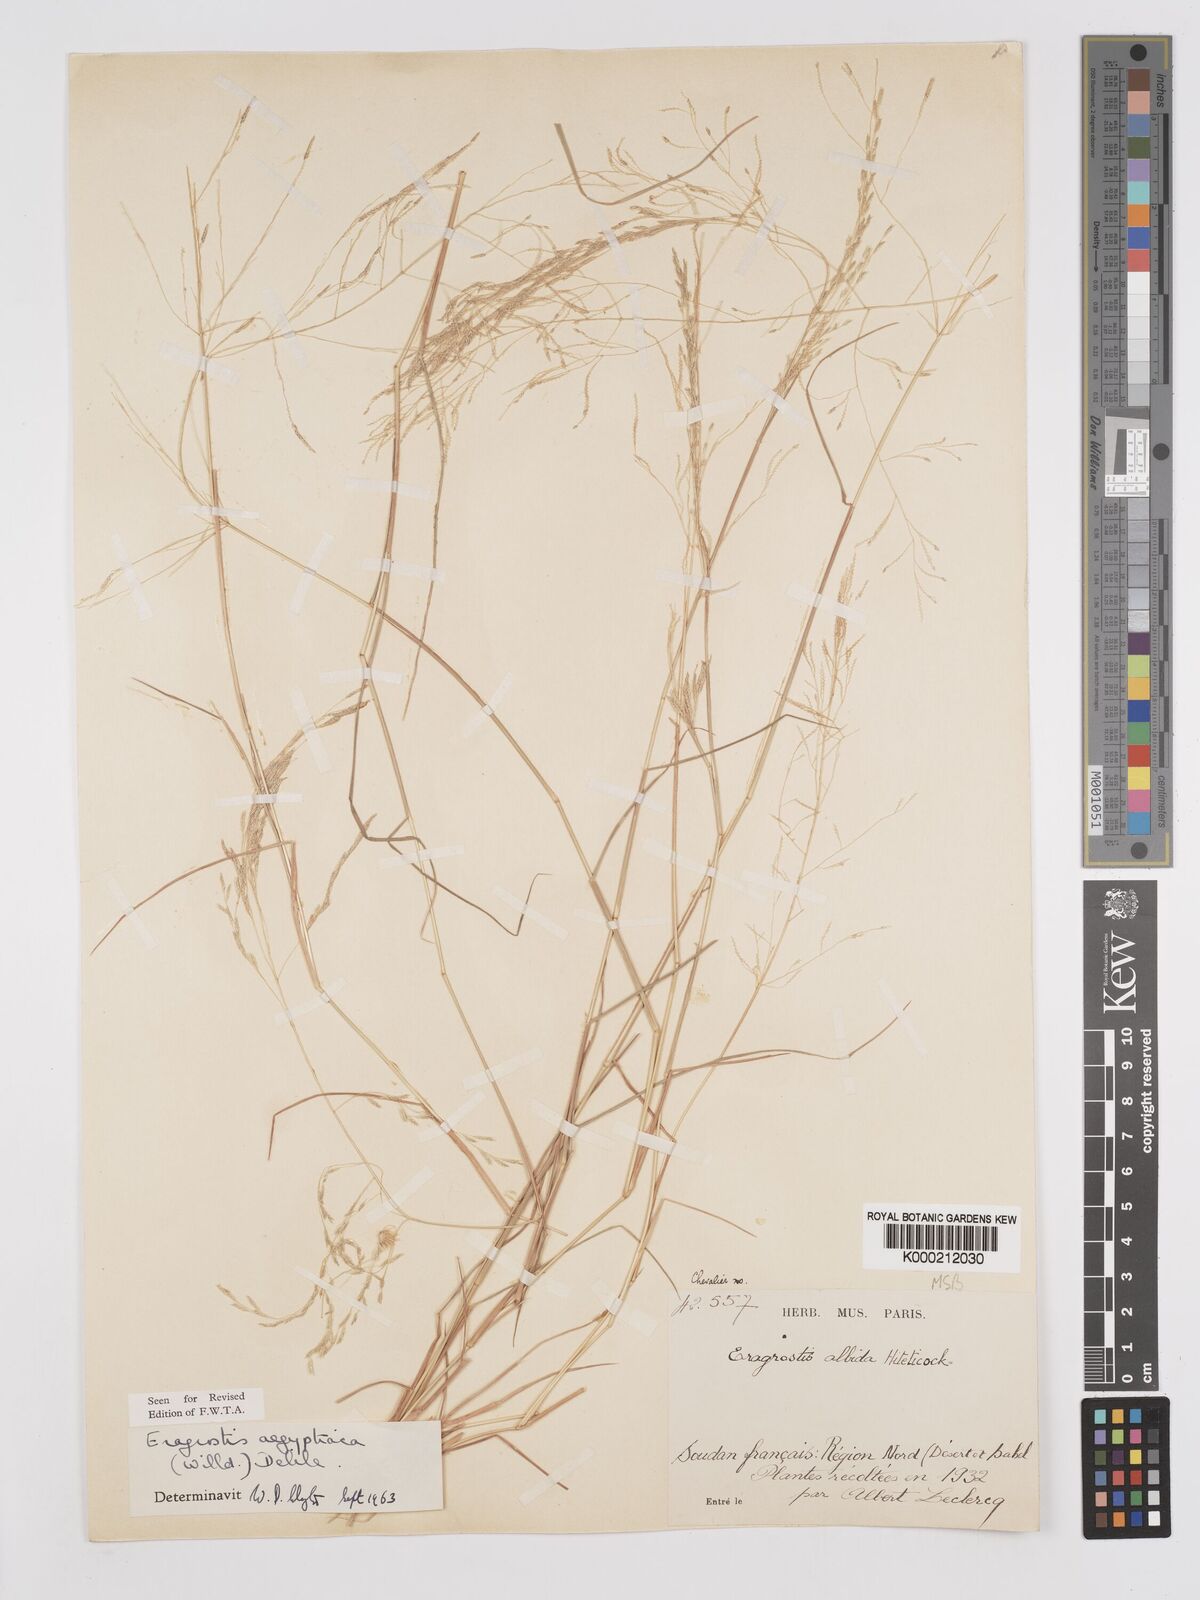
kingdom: Plantae
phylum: Tracheophyta
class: Liliopsida
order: Poales
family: Poaceae
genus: Eragrostis
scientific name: Eragrostis aegyptiaca
